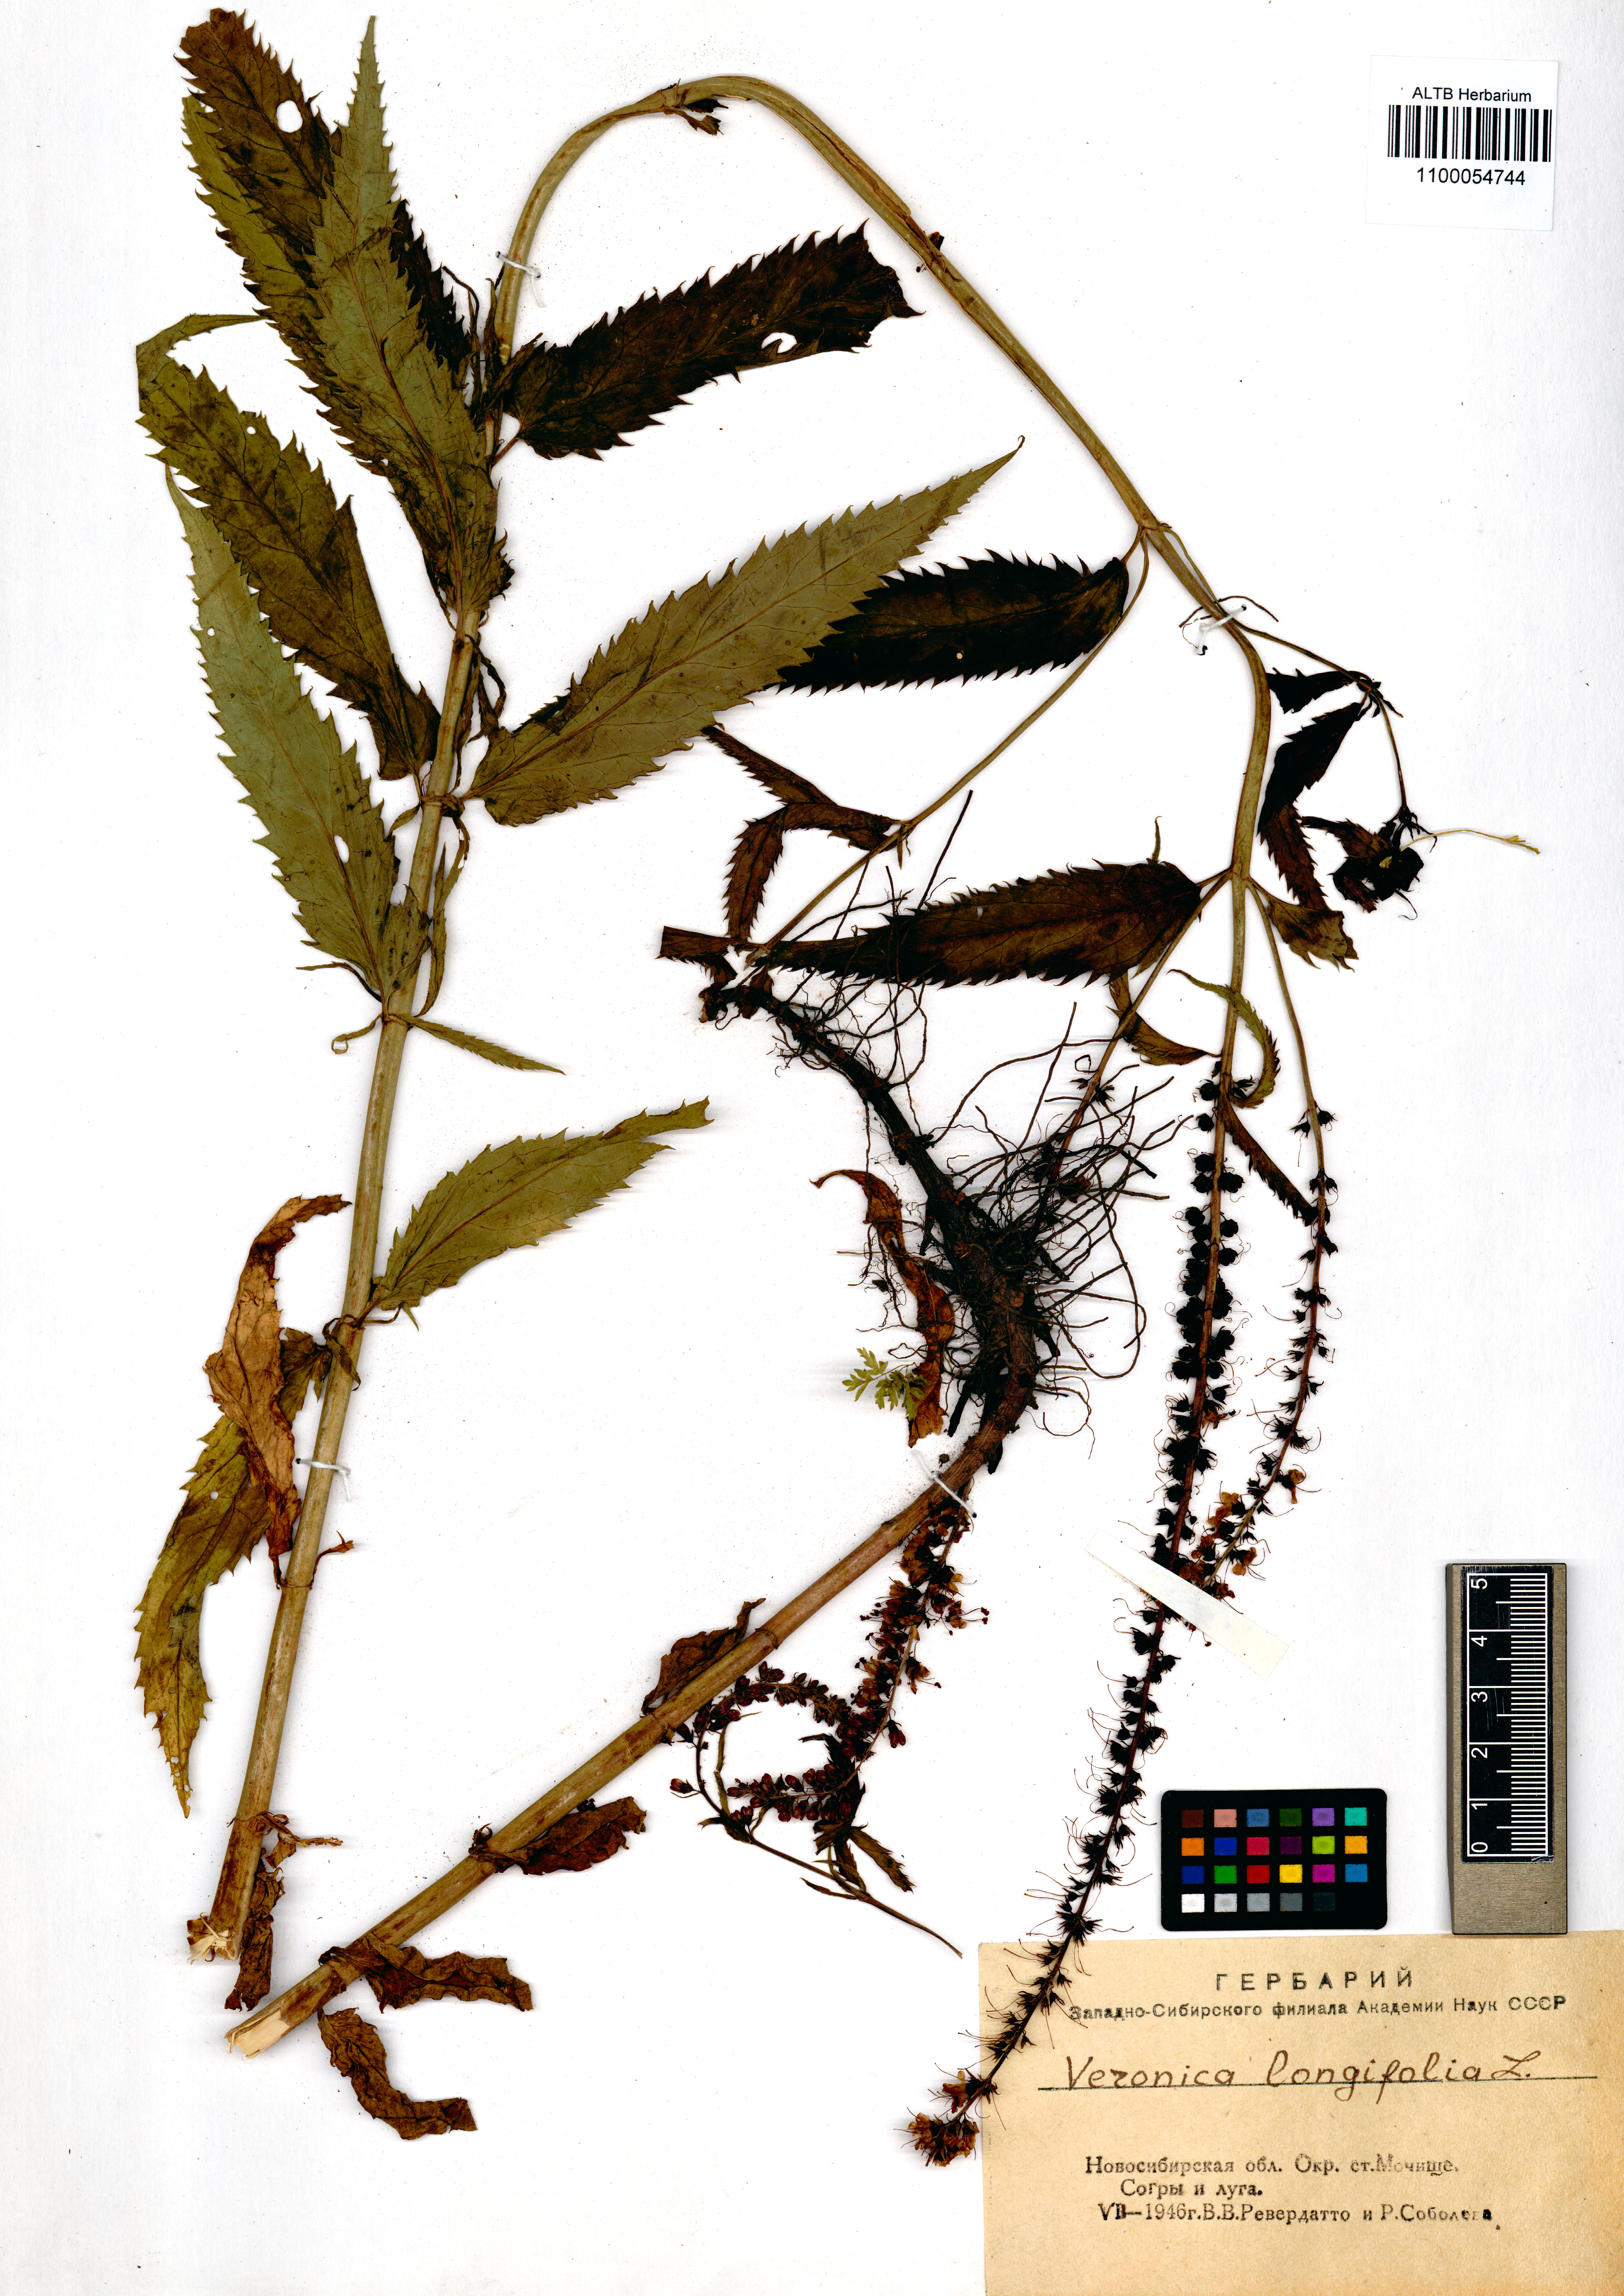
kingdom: Plantae
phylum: Tracheophyta
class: Magnoliopsida
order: Lamiales
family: Plantaginaceae
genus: Veronica
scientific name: Veronica longifolia
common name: Garden speedwell
